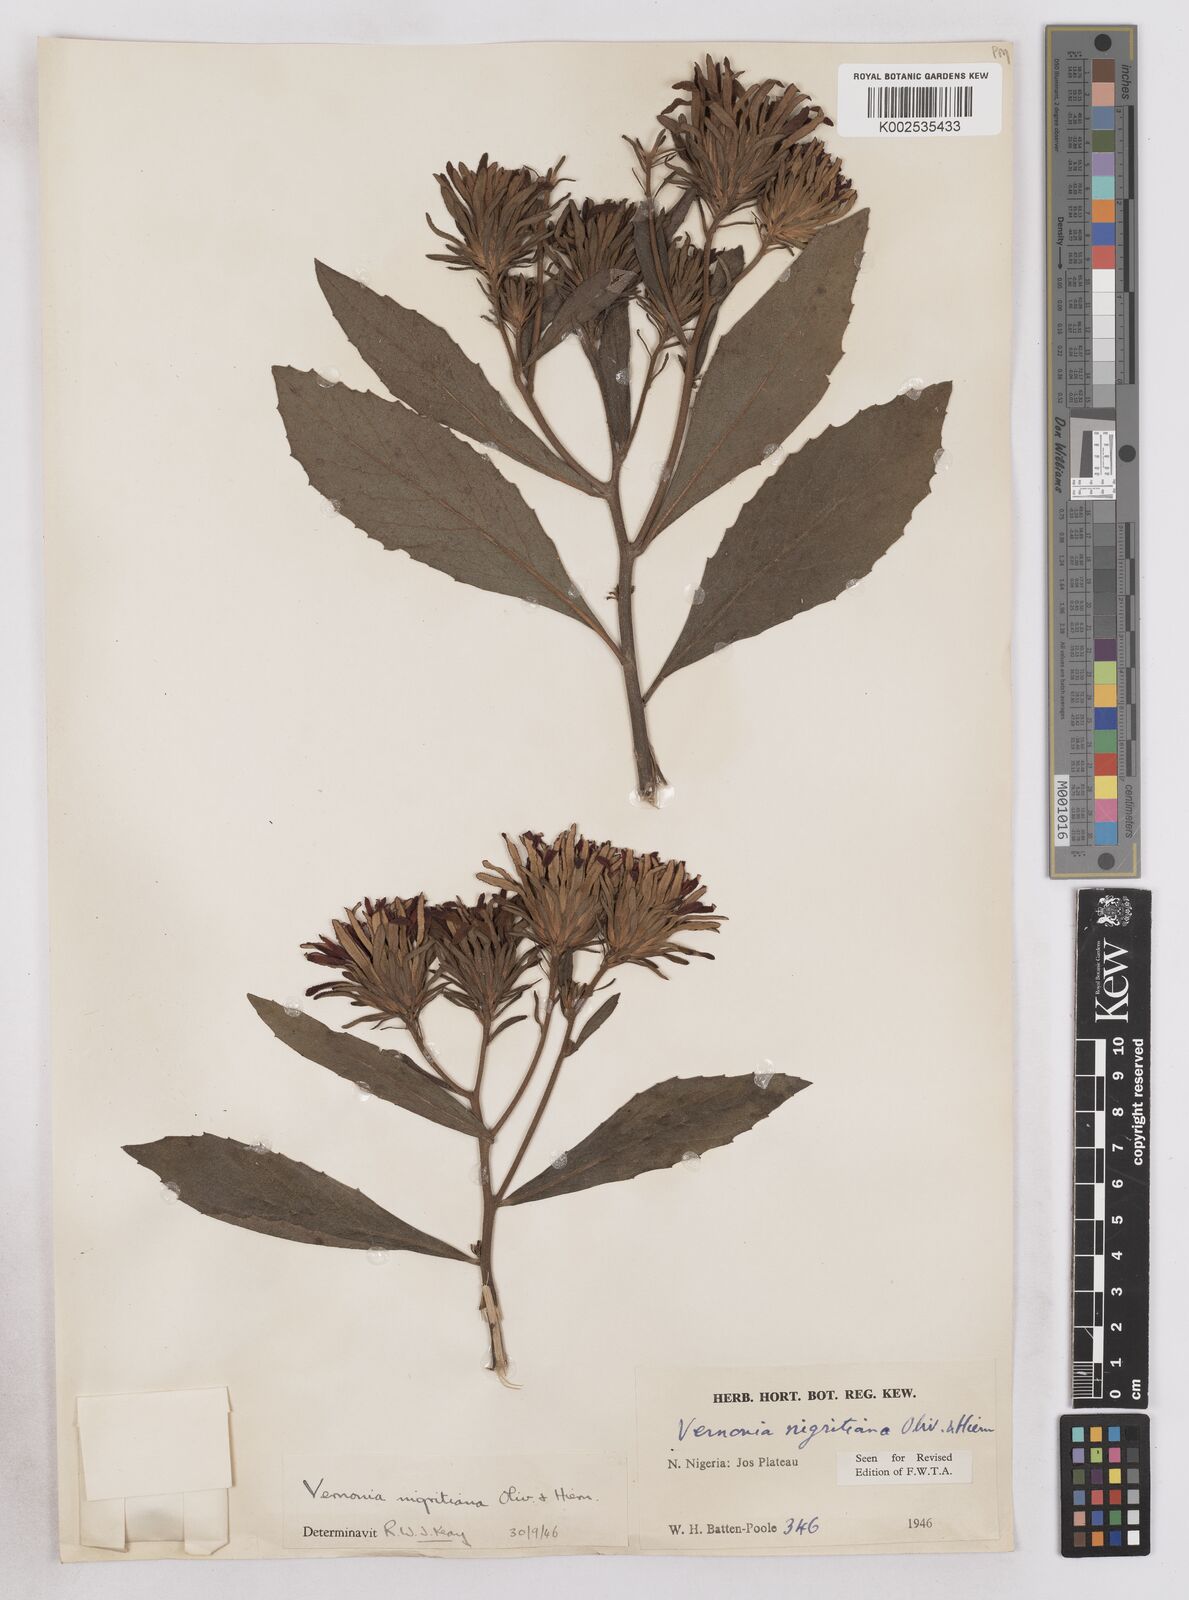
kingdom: Plantae
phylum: Tracheophyta
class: Magnoliopsida
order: Asterales
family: Asteraceae
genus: Linzia
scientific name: Linzia nigritiana
